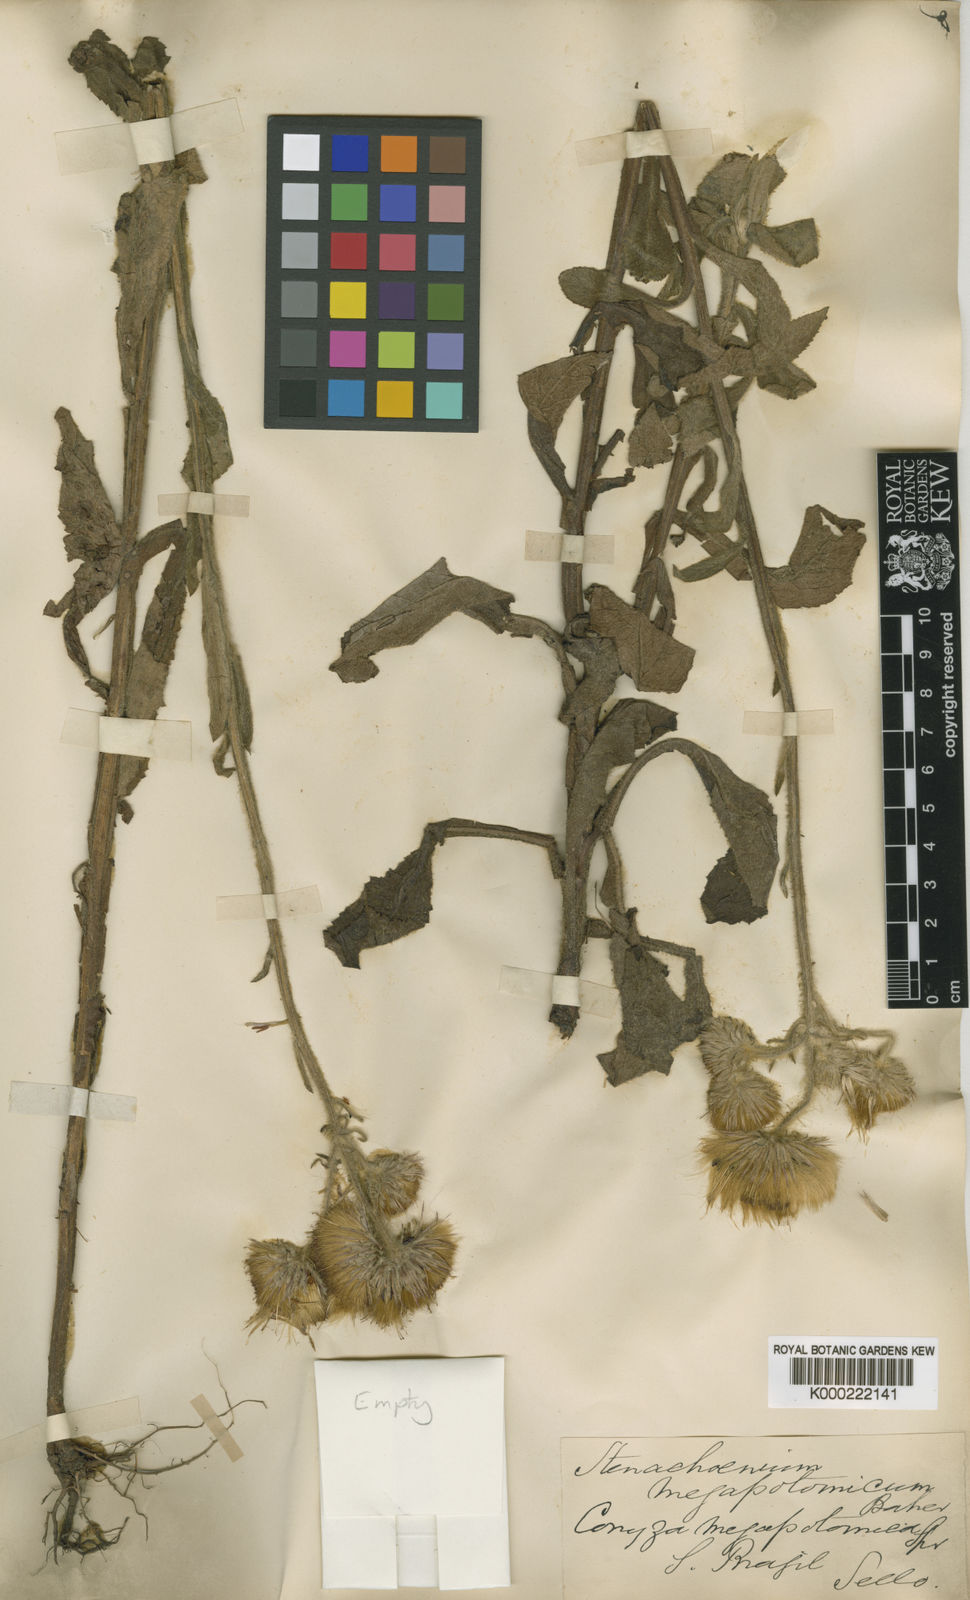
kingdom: Plantae
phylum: Tracheophyta
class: Magnoliopsida
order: Asterales
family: Asteraceae
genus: Stenachaenium
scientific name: Stenachaenium megapotamicum
